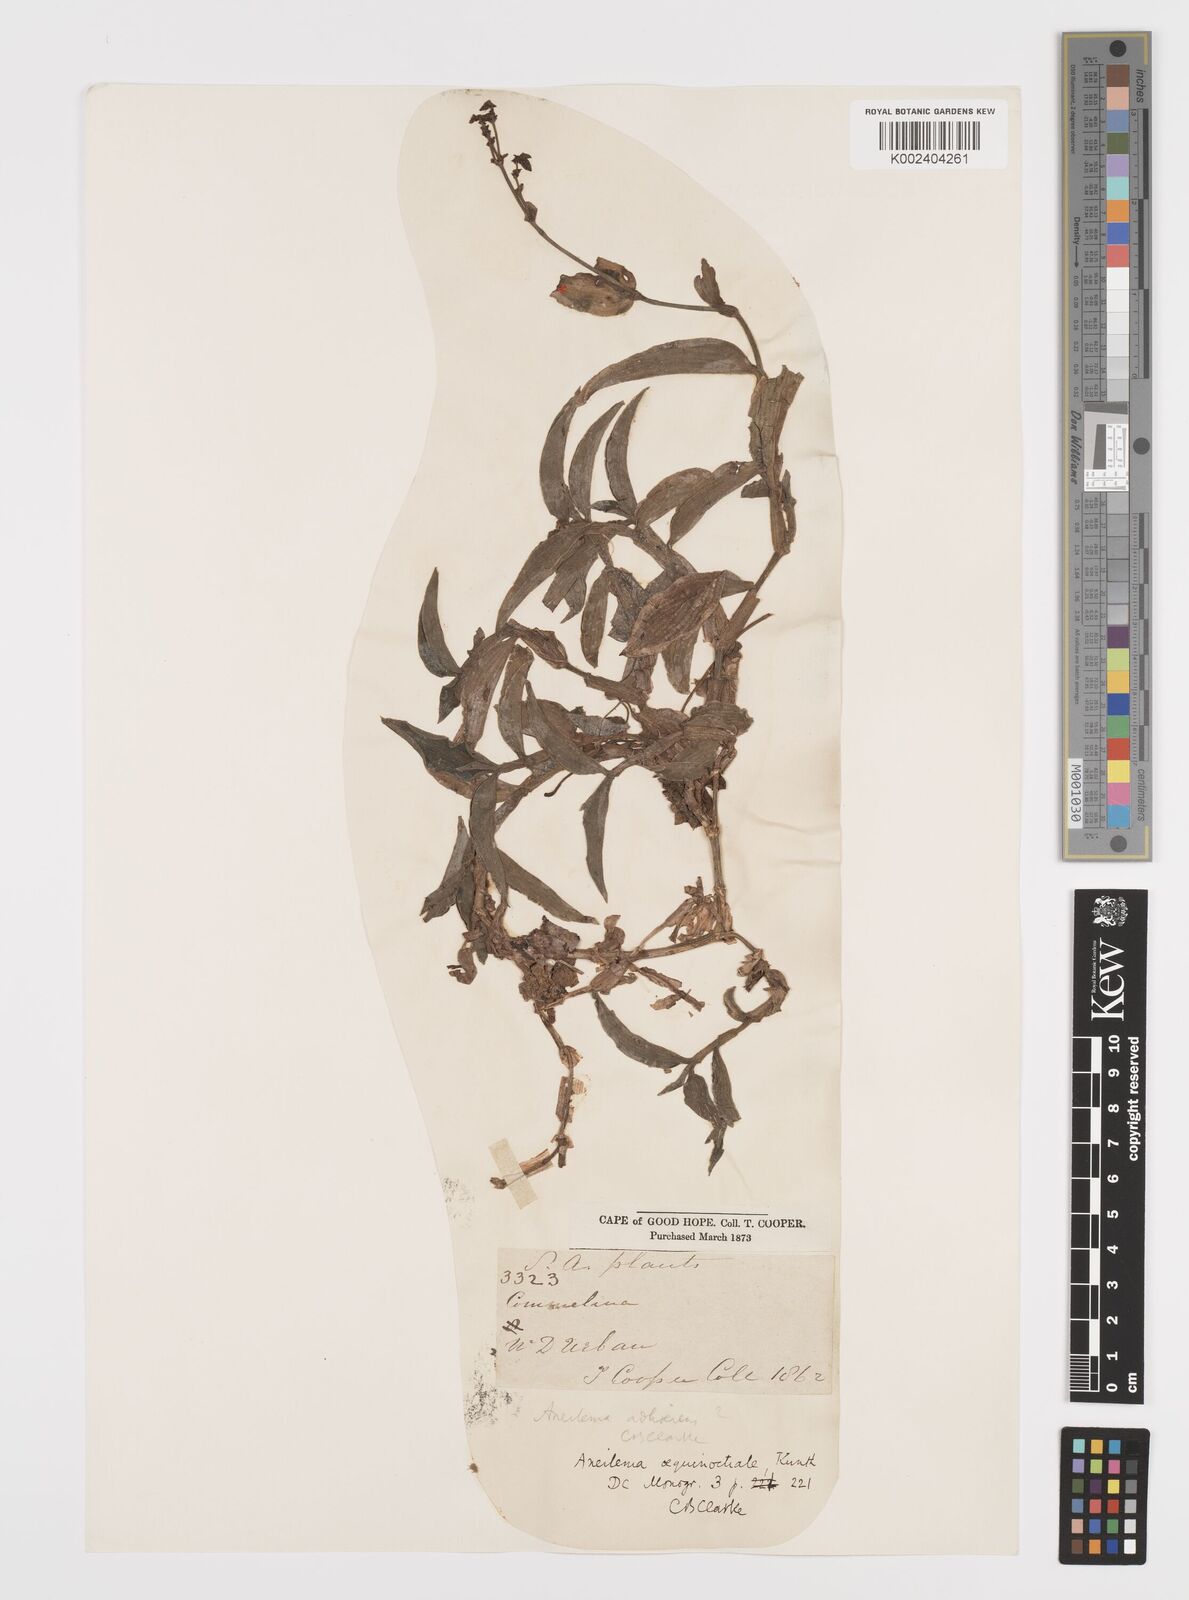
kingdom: Plantae
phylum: Tracheophyta
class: Liliopsida
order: Commelinales
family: Commelinaceae
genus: Aneilema
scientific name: Aneilema aequinoctiale
